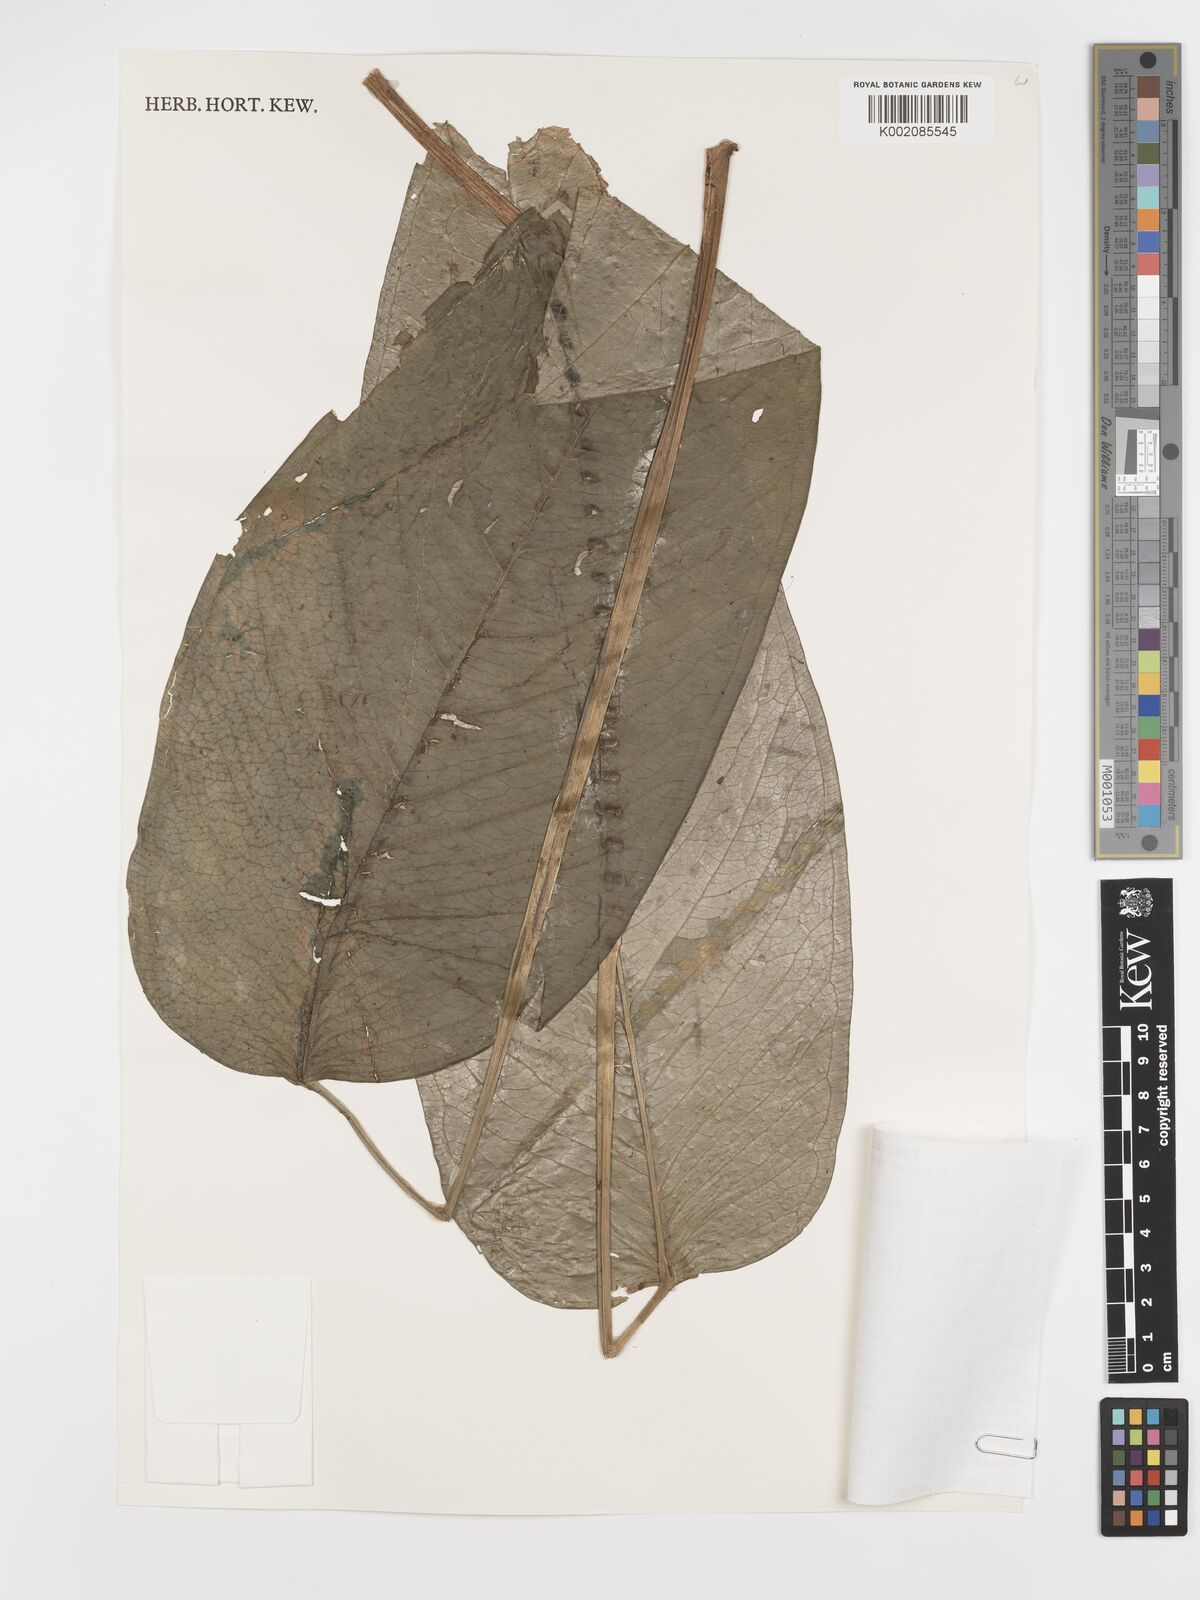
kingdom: Plantae
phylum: Tracheophyta
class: Liliopsida
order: Alismatales
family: Araceae
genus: Anthurium
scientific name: Anthurium amoenum
